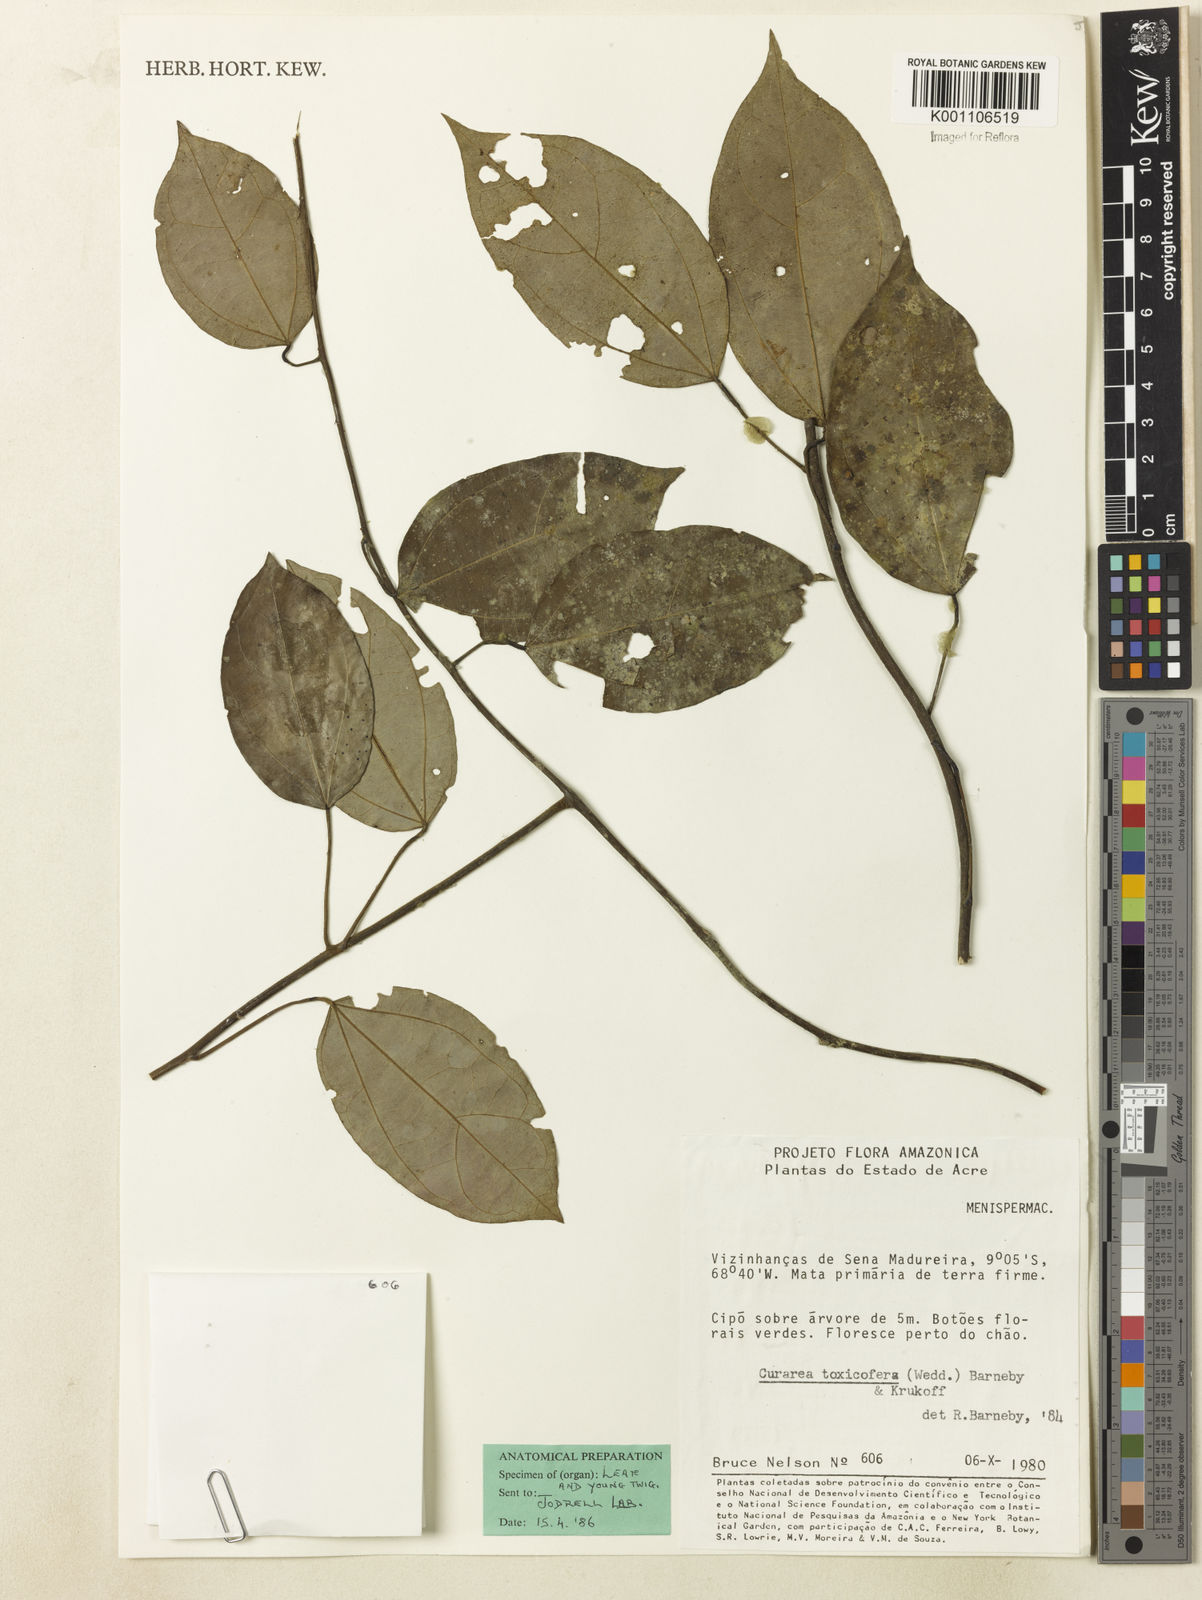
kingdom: Plantae
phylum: Tracheophyta
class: Magnoliopsida
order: Ranunculales
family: Menispermaceae
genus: Curarea
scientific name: Curarea toxicofera
